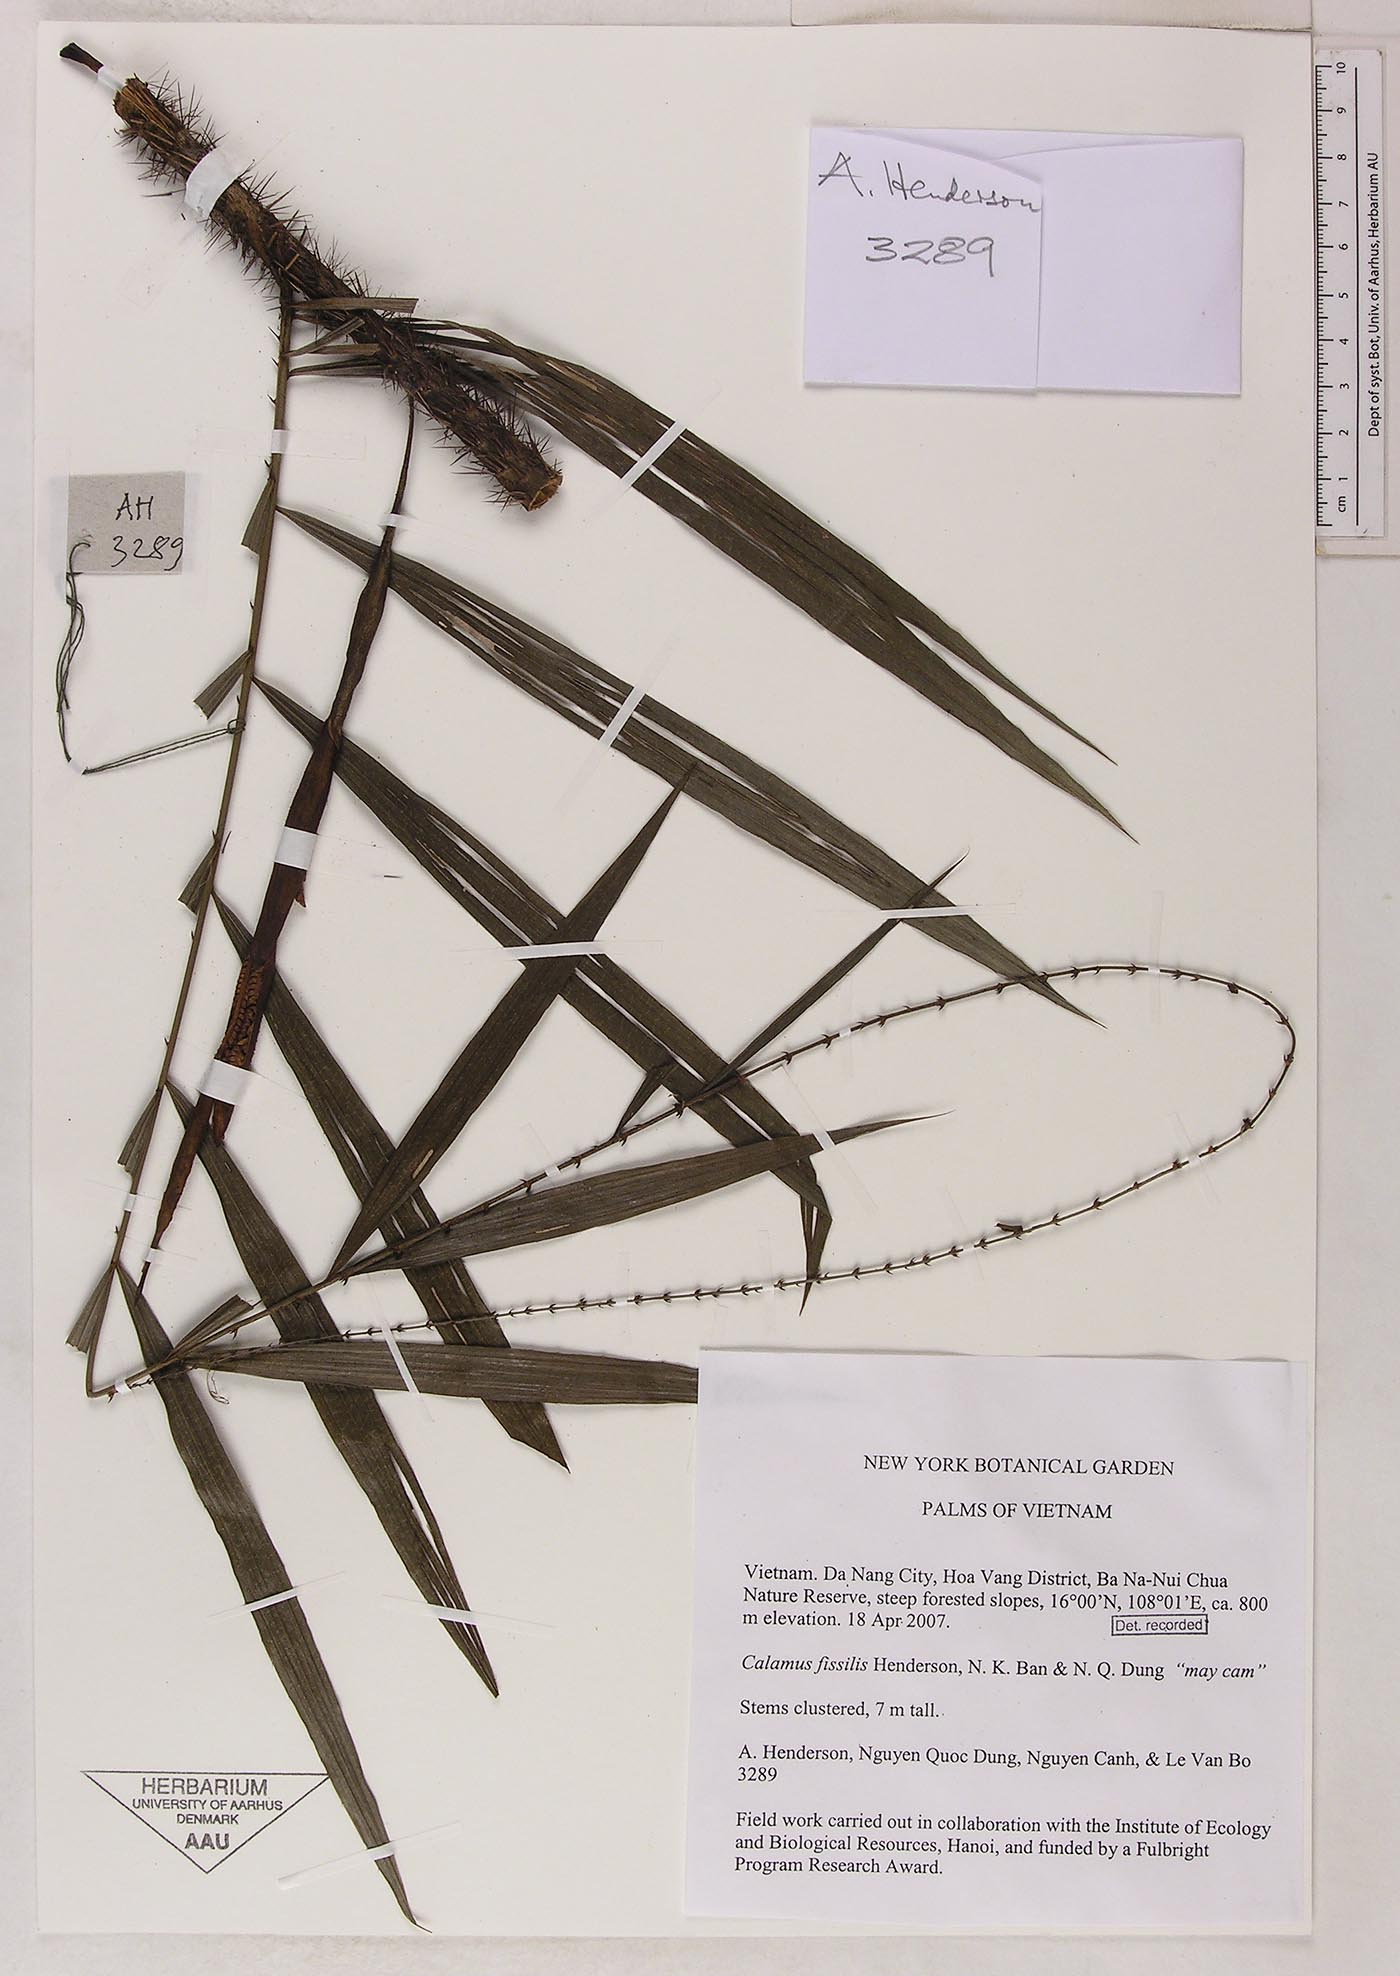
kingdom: Plantae
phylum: Tracheophyta
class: Liliopsida
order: Arecales
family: Arecaceae
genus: Calamus
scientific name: Calamus fissilis
